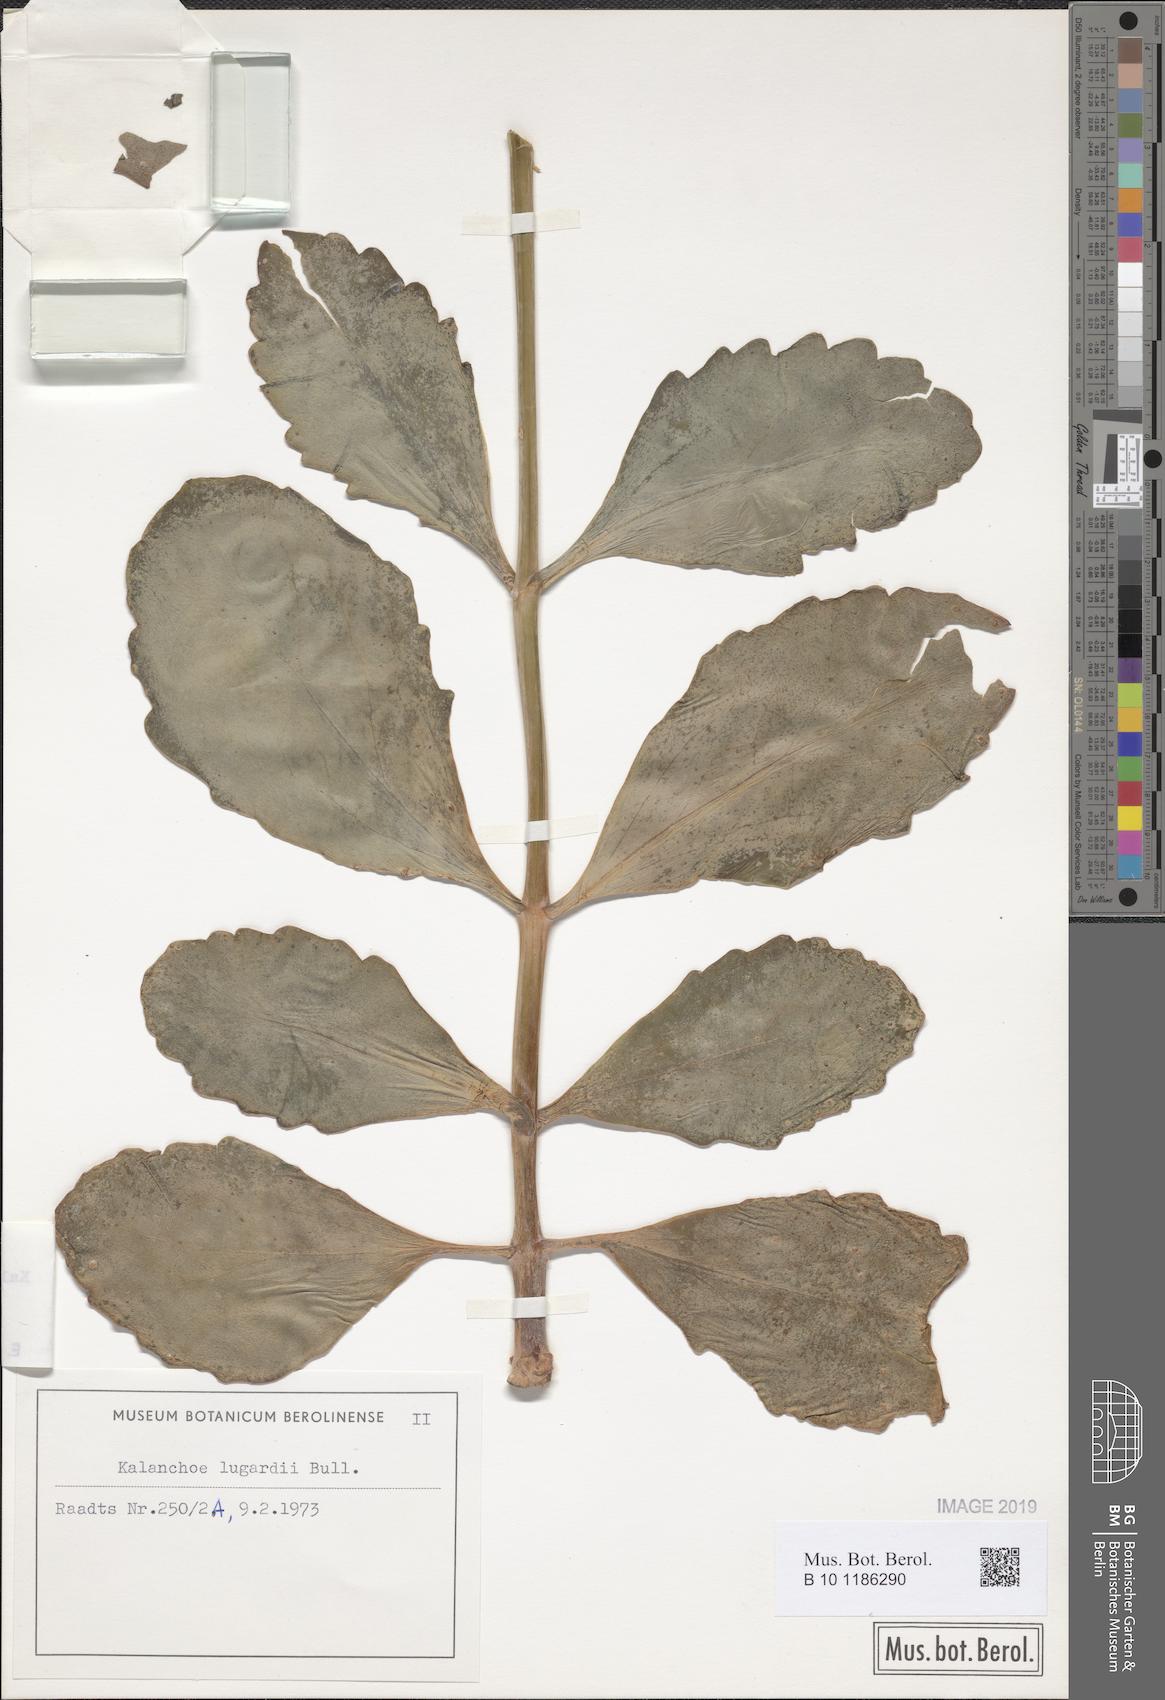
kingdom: Plantae
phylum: Tracheophyta
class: Magnoliopsida
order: Saxifragales
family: Crassulaceae
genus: Kalanchoe
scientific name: Kalanchoe prittwitzii
